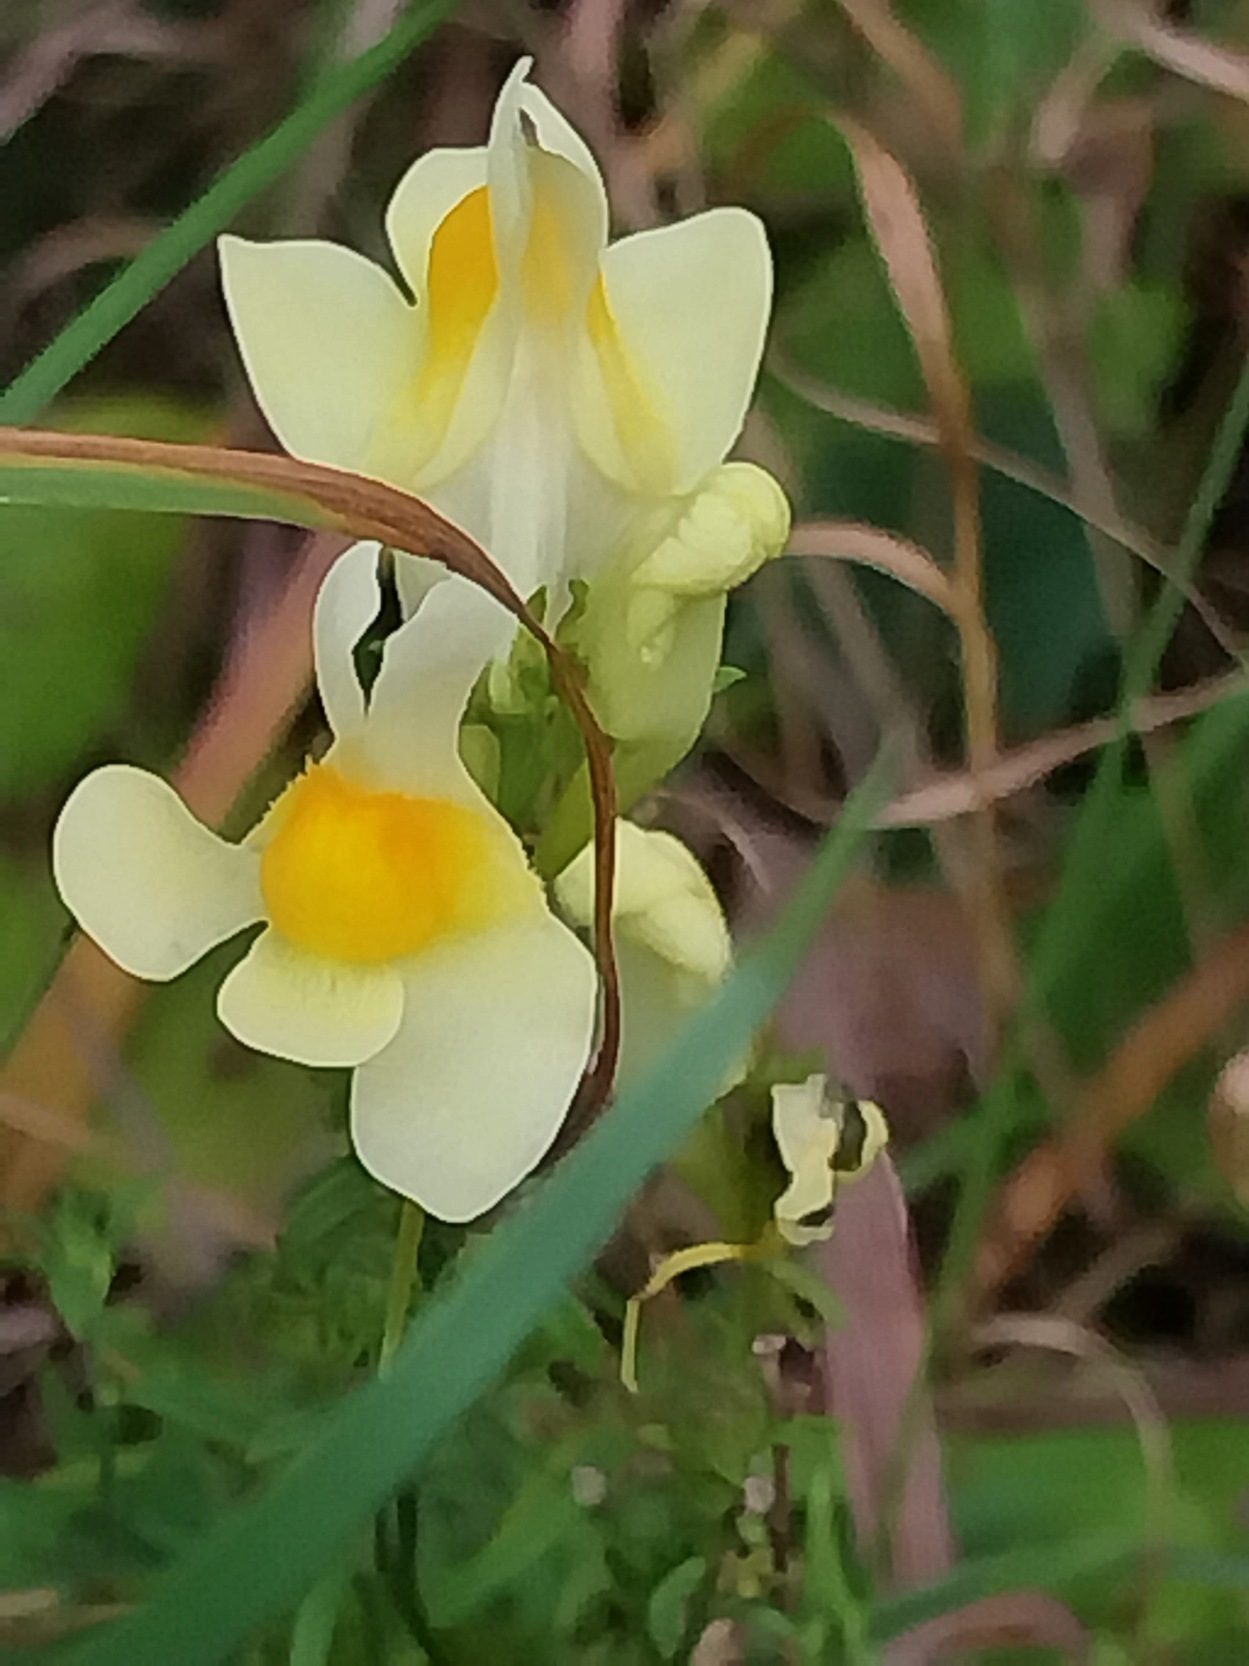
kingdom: Plantae
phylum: Tracheophyta
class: Magnoliopsida
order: Lamiales
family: Plantaginaceae
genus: Linaria
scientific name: Linaria vulgaris
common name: Almindelig torskemund
